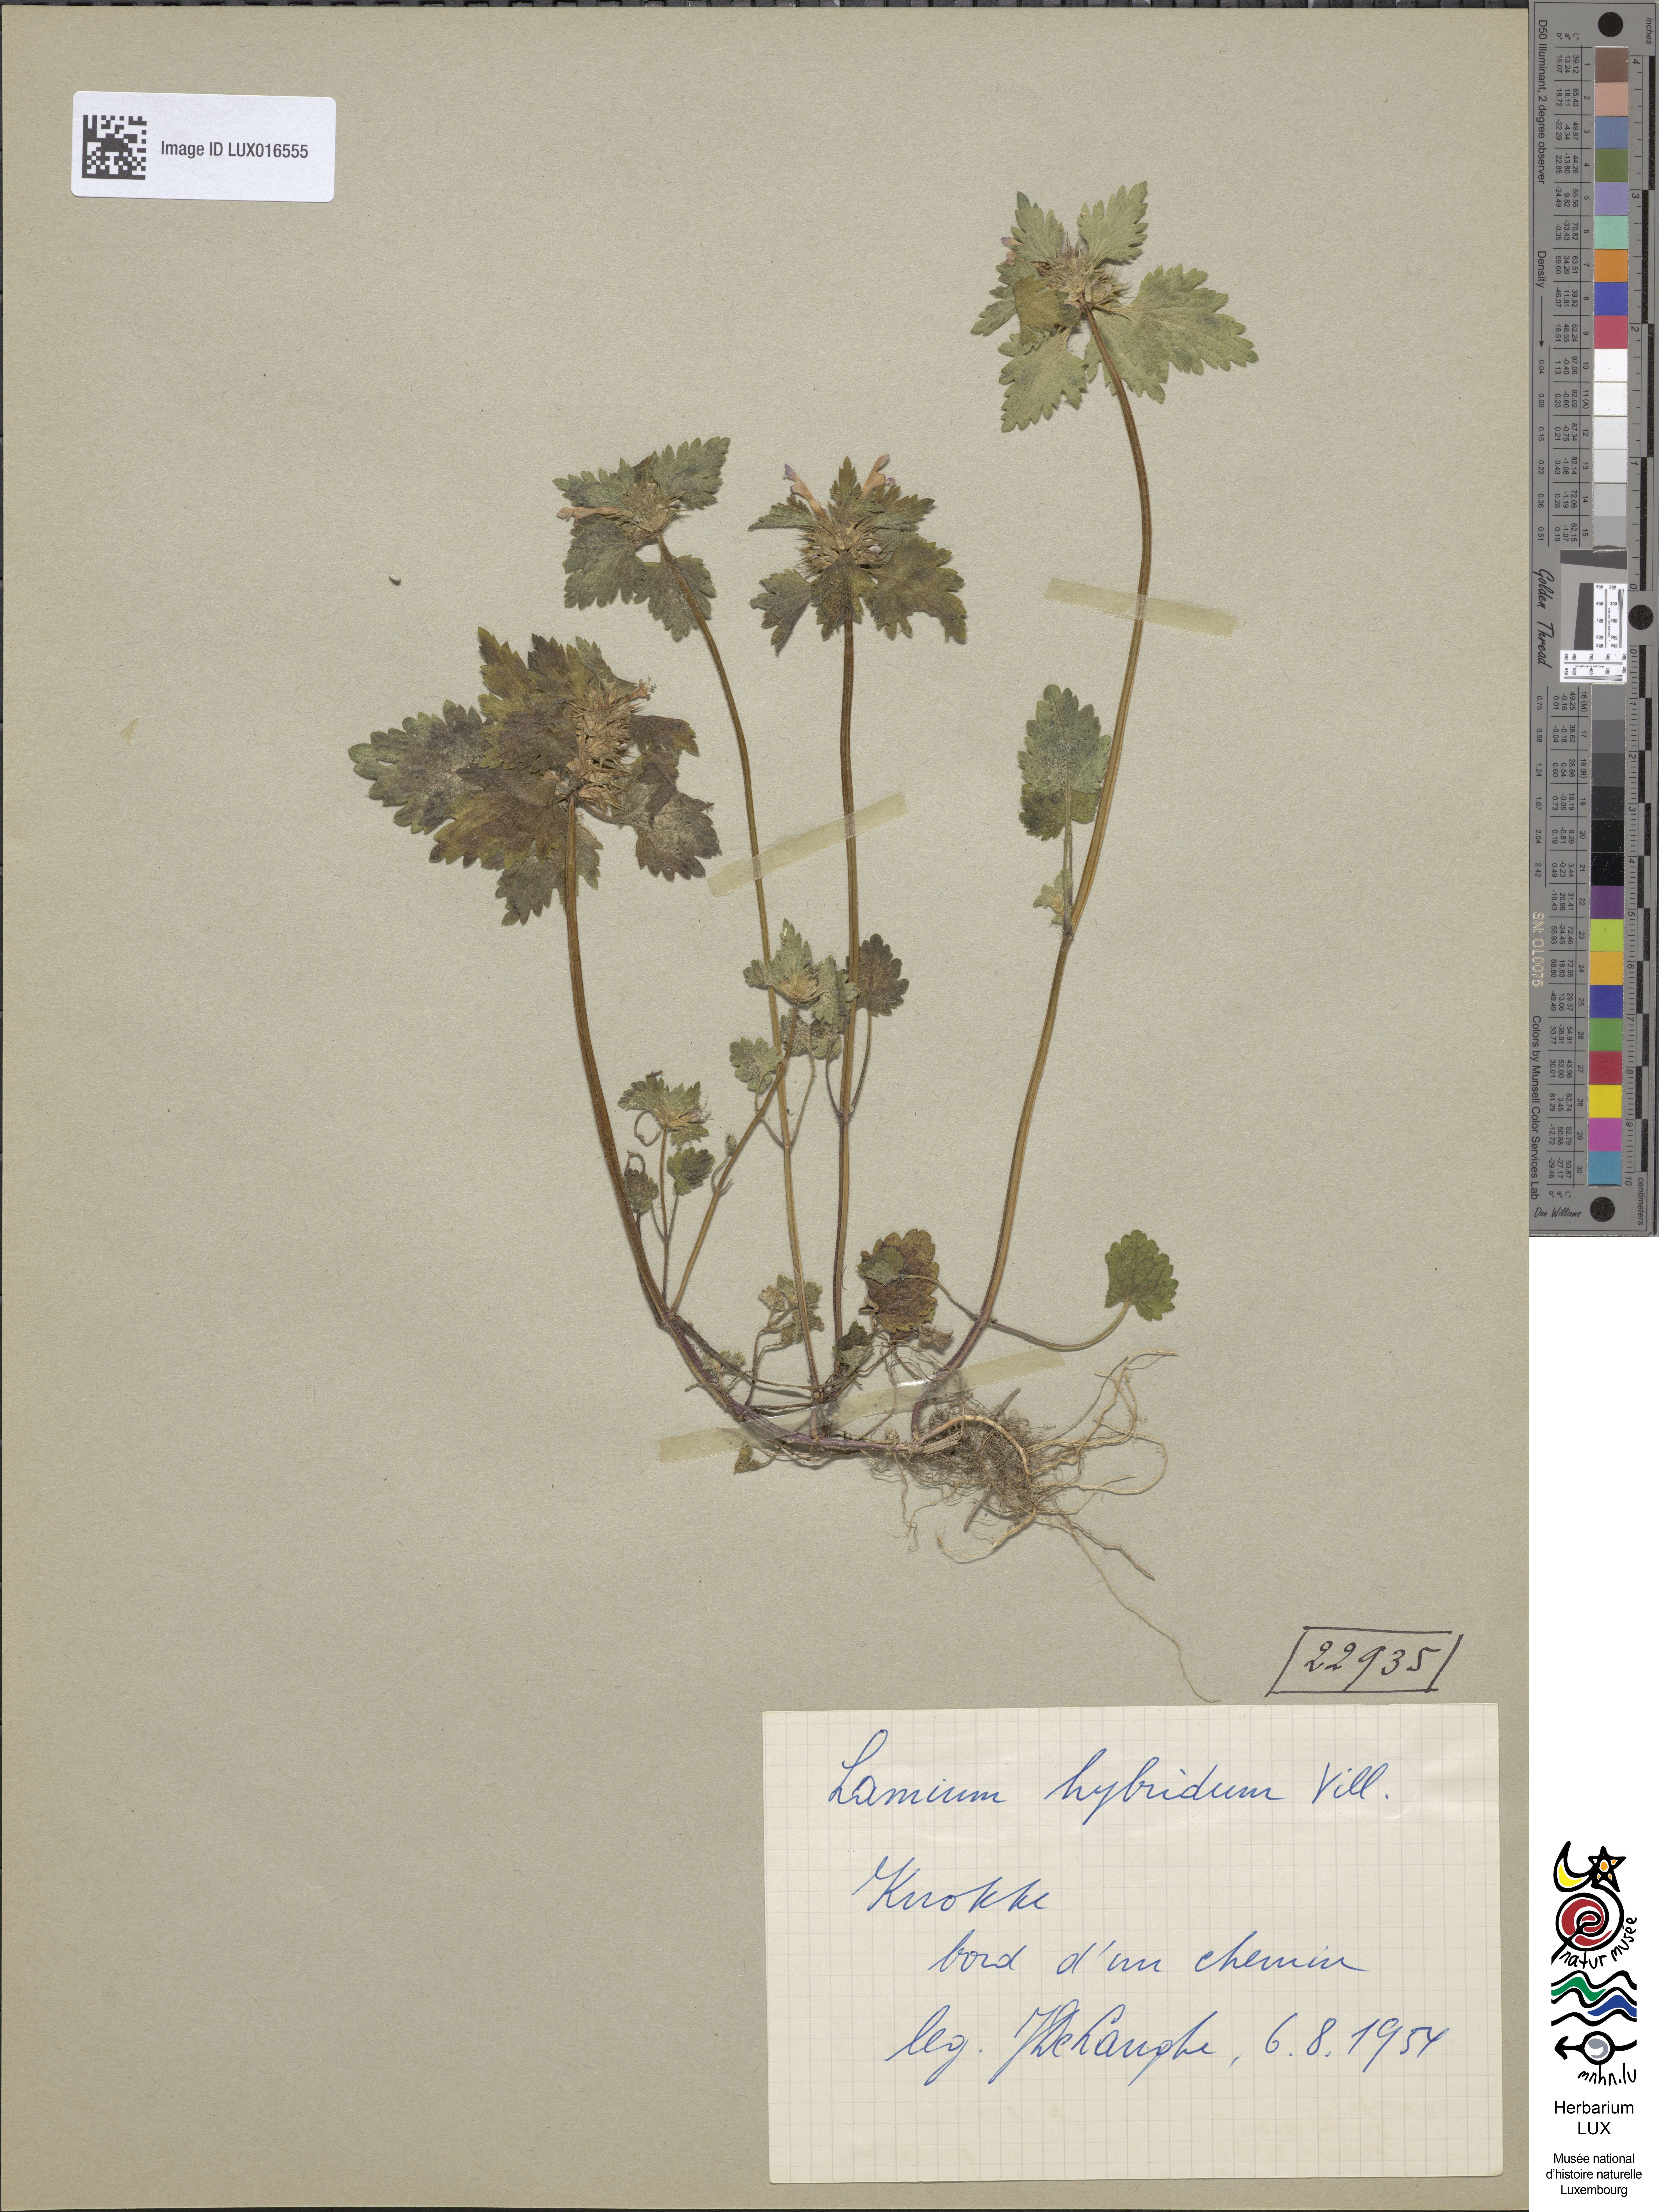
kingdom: Plantae
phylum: Tracheophyta
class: Magnoliopsida
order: Lamiales
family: Lamiaceae
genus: Lamium
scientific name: Lamium hybridum
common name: Cut-leaved dead-nettle
